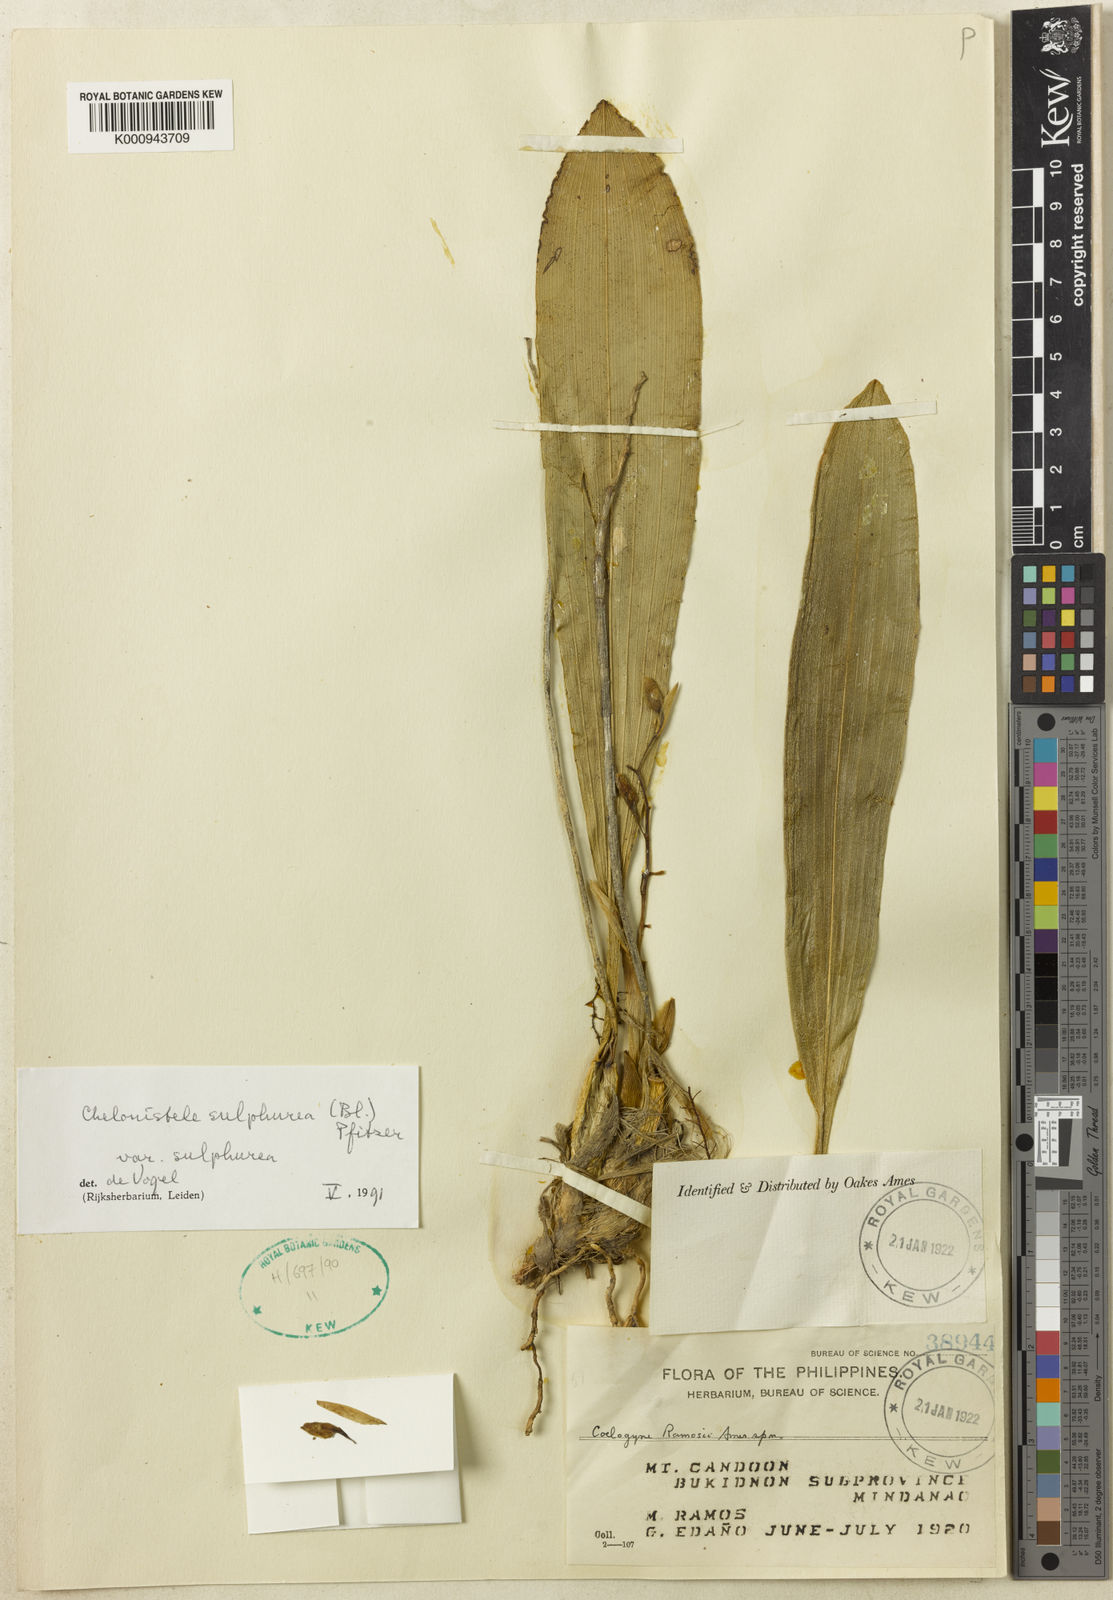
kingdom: Plantae
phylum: Tracheophyta
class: Liliopsida
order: Asparagales
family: Orchidaceae
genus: Coelogyne
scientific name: Coelogyne sulphurea
